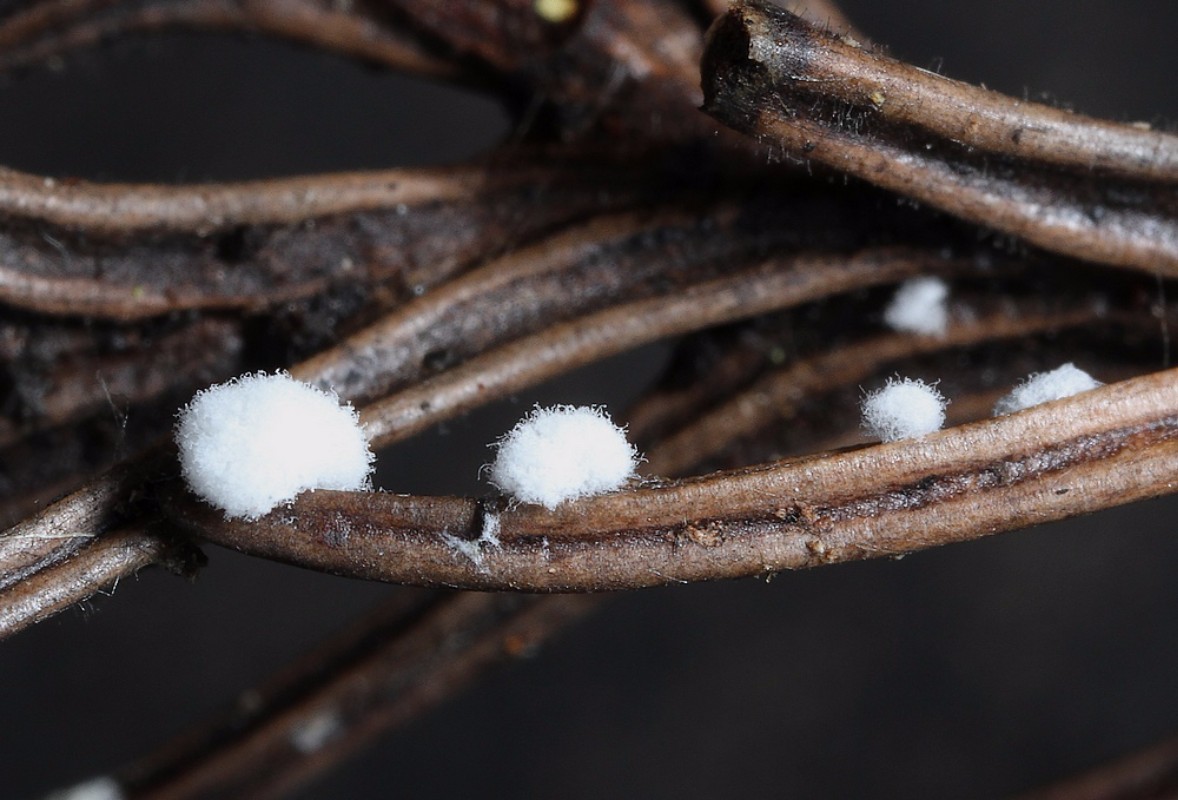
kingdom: Fungi
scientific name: Fungi
